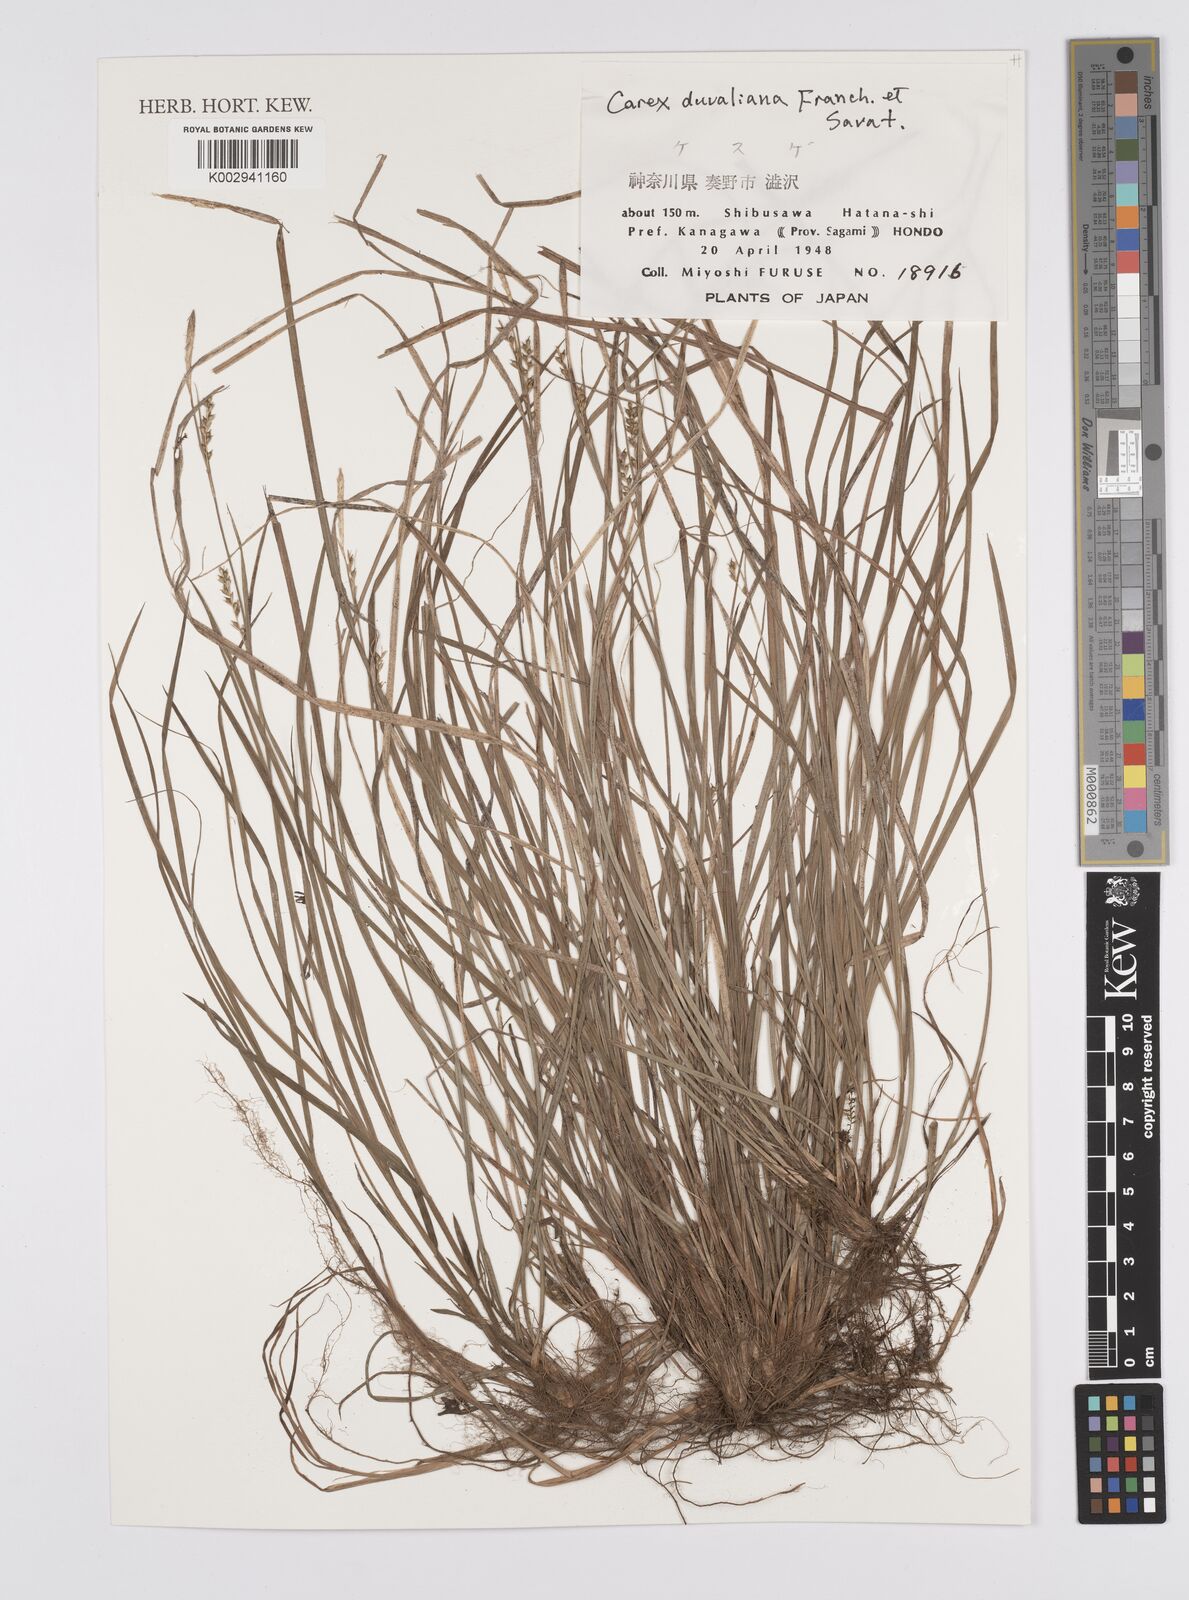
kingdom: Plantae
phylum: Tracheophyta
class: Liliopsida
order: Poales
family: Cyperaceae
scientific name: Cyperaceae
